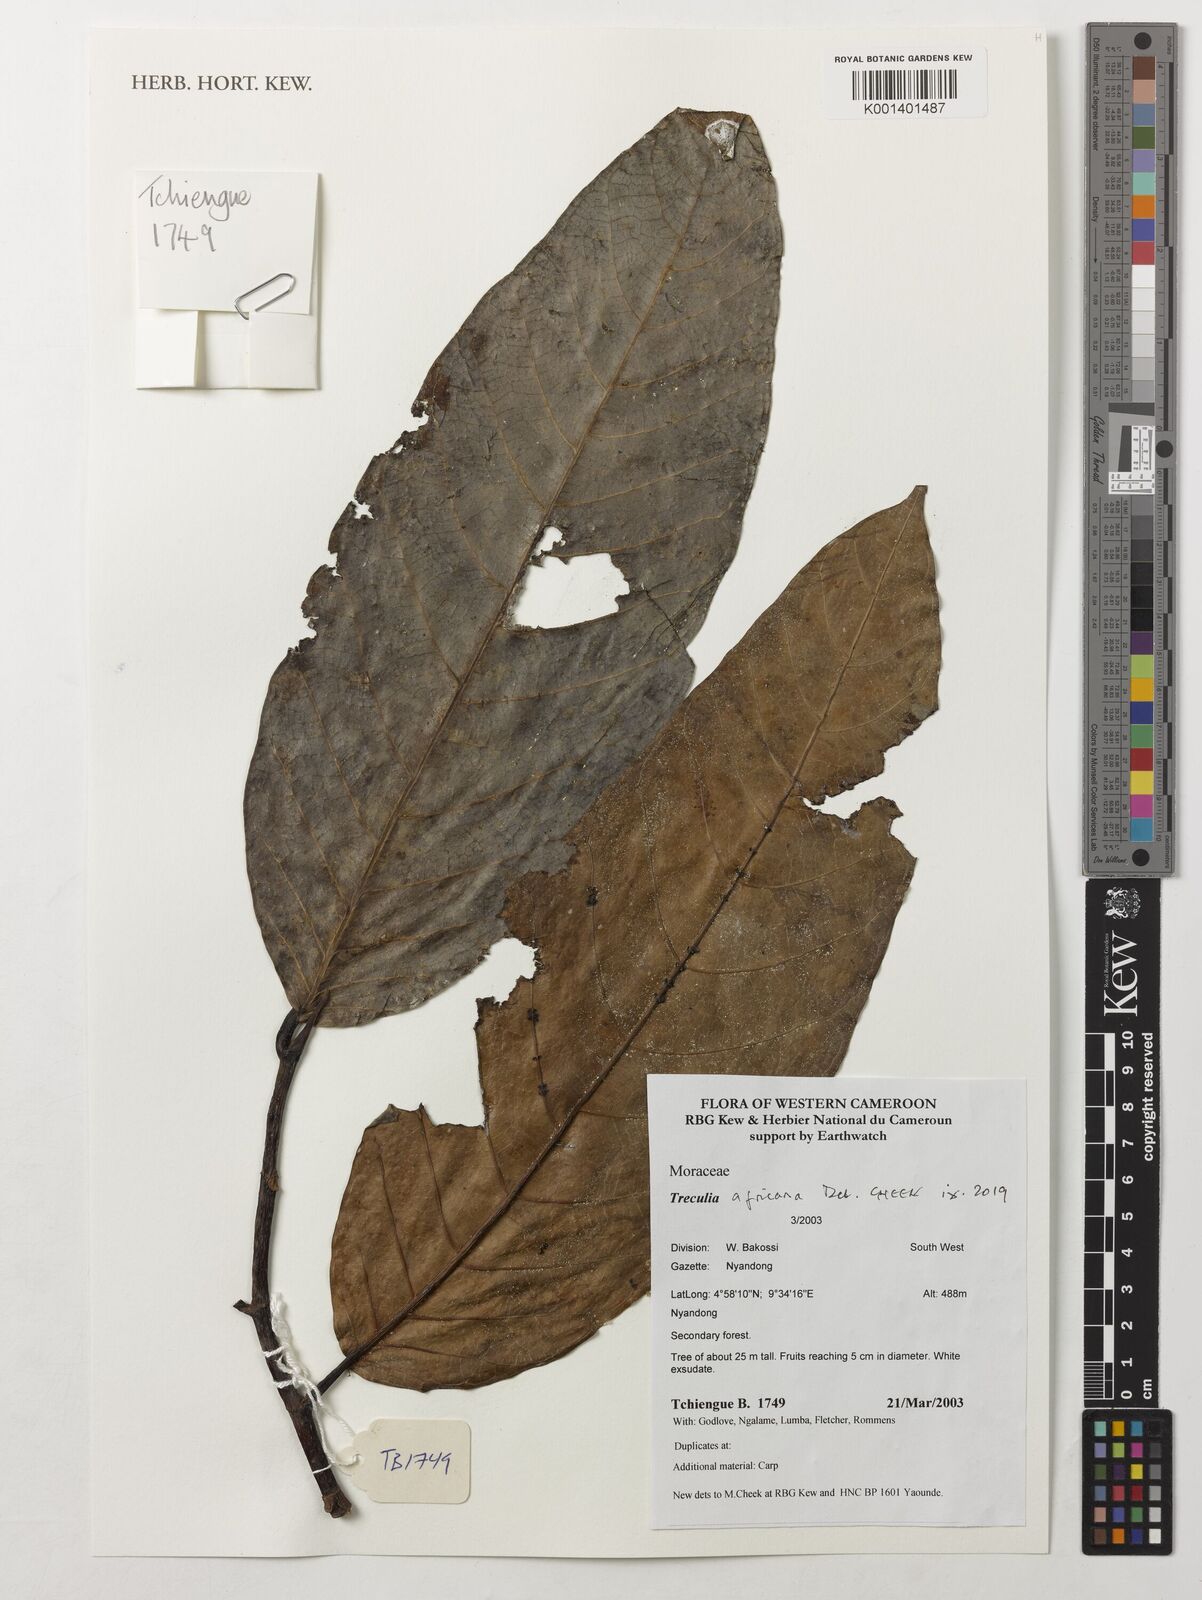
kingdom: Plantae
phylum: Tracheophyta
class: Magnoliopsida
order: Rosales
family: Moraceae
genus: Treculia
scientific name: Treculia africana
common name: African breadfruit
